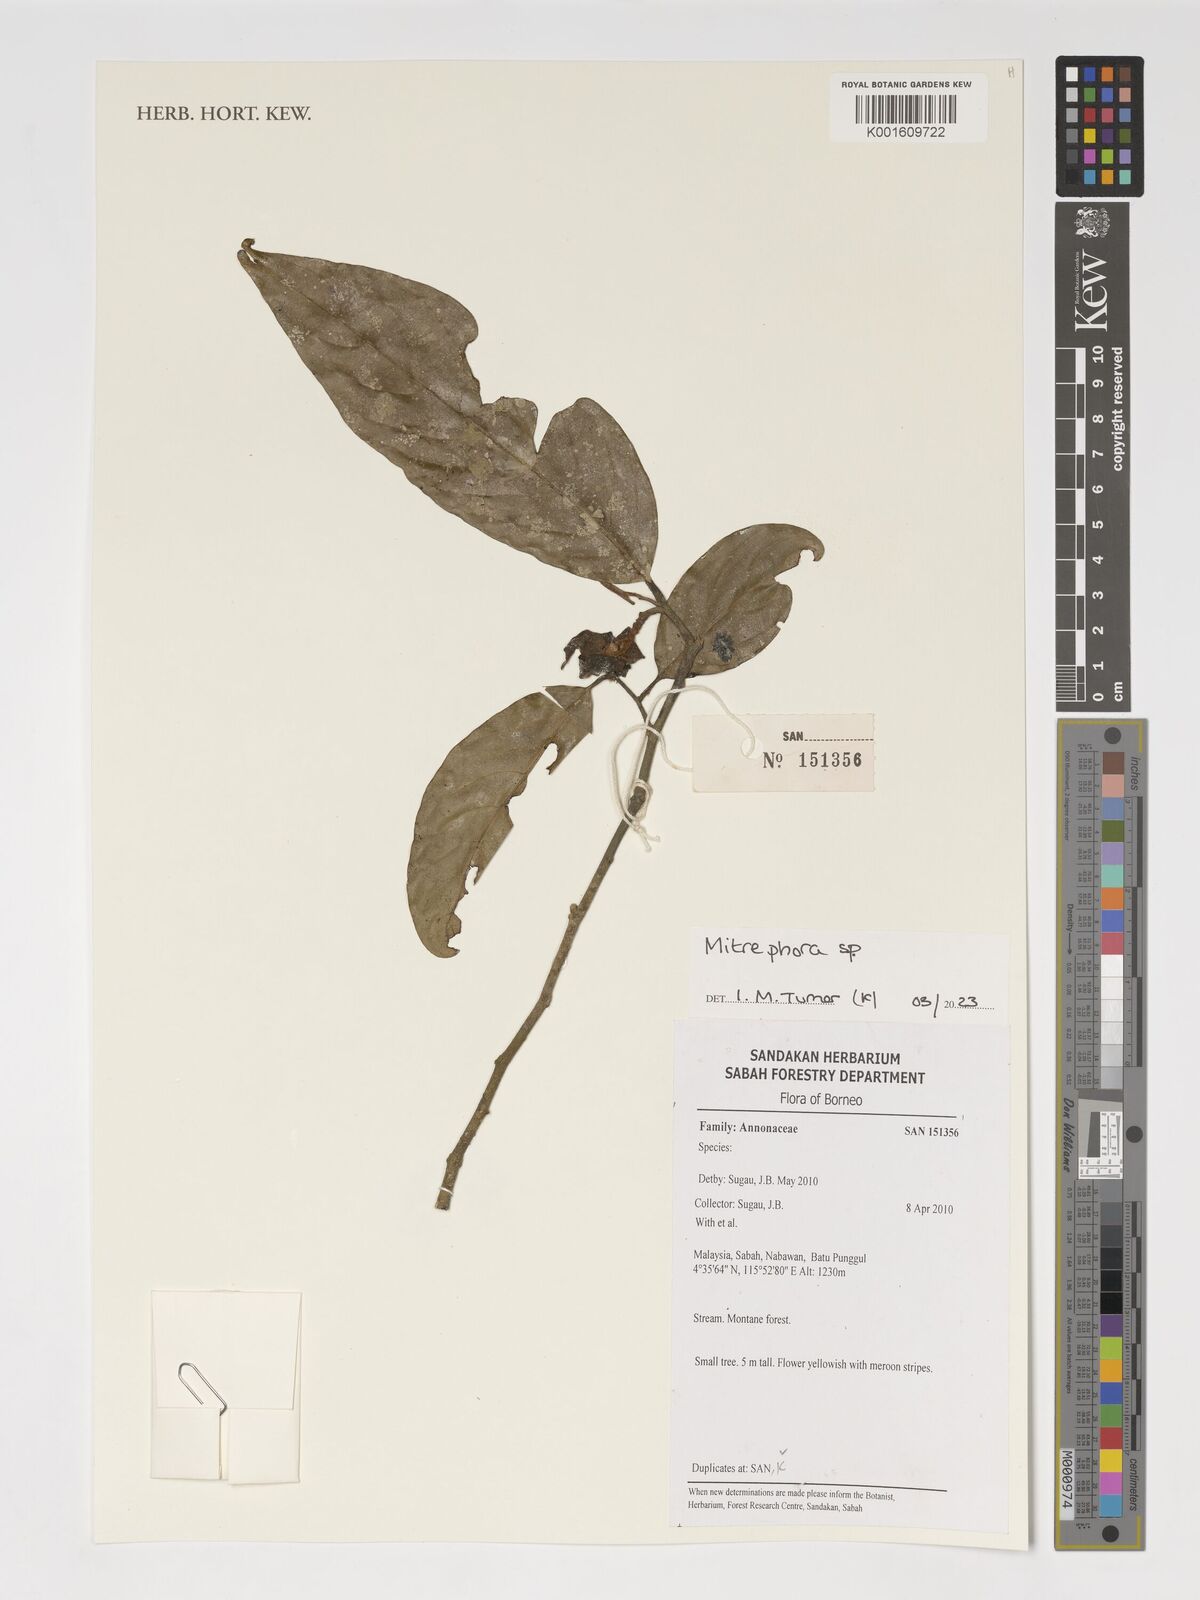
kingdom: Plantae
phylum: Tracheophyta
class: Magnoliopsida
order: Magnoliales
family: Annonaceae
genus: Mitrephora
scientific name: Mitrephora
